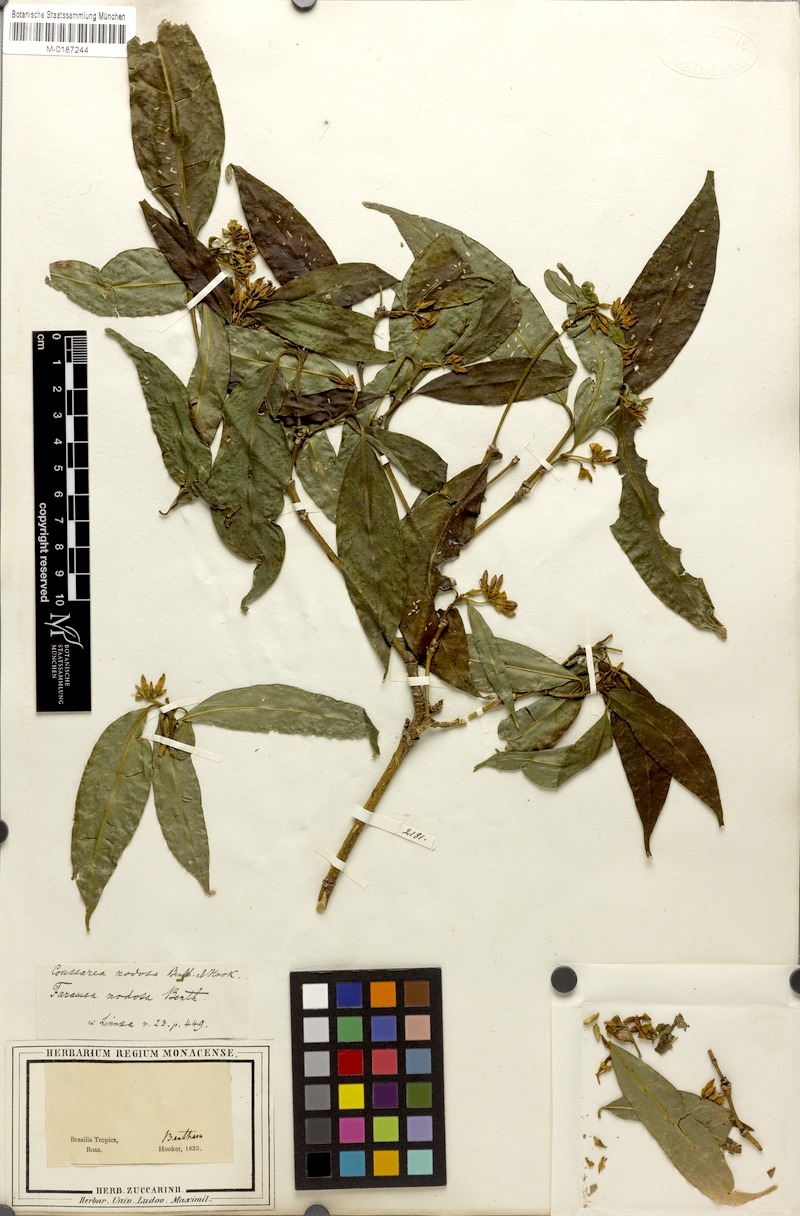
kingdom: Plantae
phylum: Tracheophyta
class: Magnoliopsida
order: Gentianales
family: Rubiaceae
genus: Coussarea
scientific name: Coussarea nodosa
